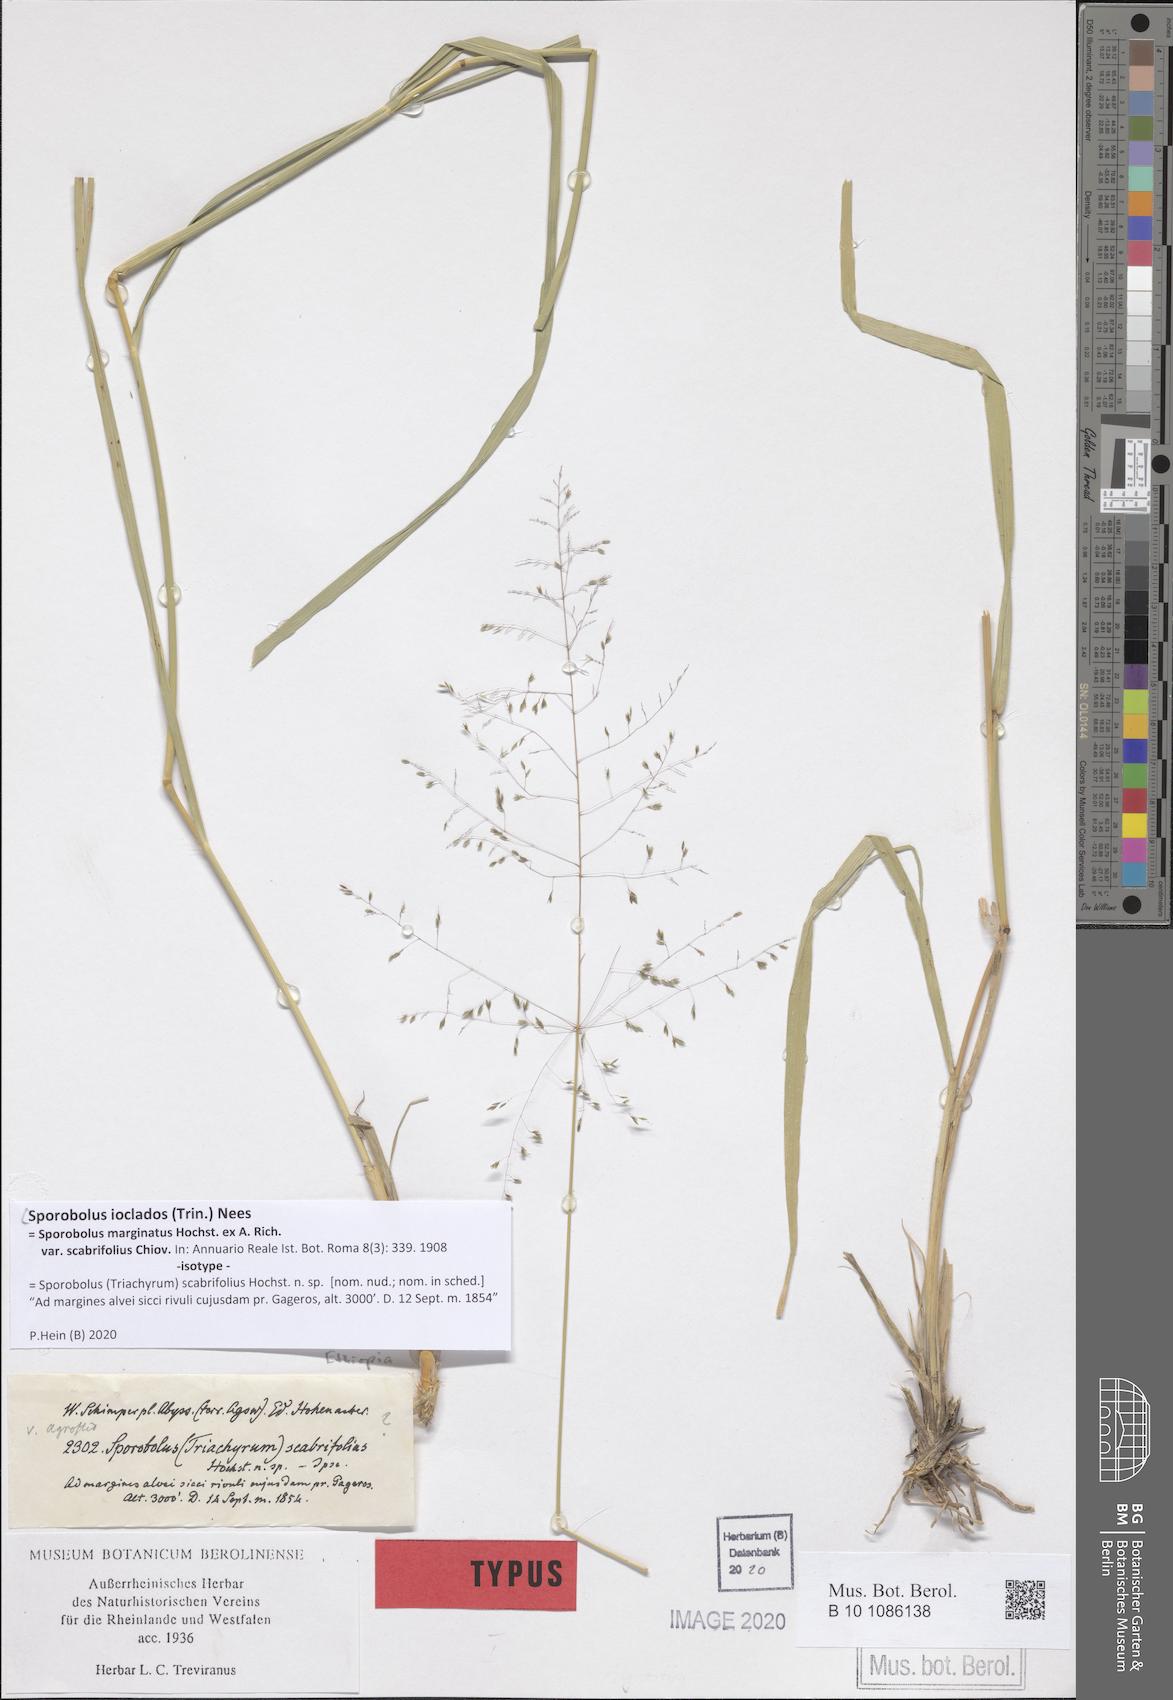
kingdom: Plantae
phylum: Tracheophyta
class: Liliopsida
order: Poales
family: Poaceae
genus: Sporobolus
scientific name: Sporobolus ioclados
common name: Pan dropseed
